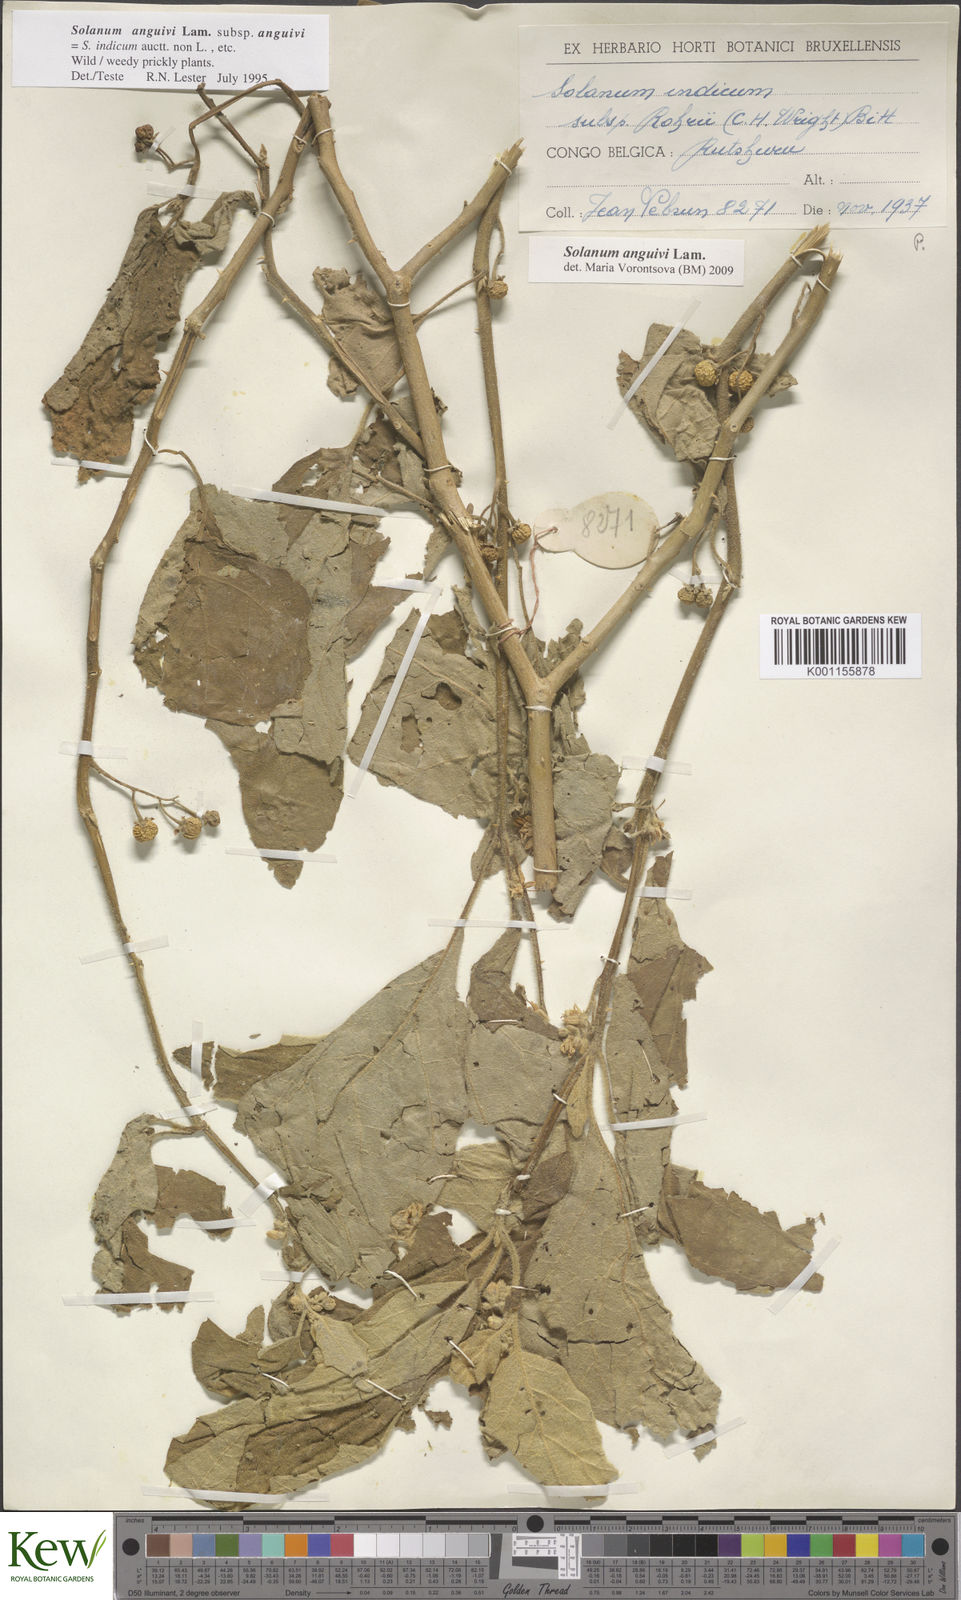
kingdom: Plantae
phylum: Tracheophyta
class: Magnoliopsida
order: Solanales
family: Solanaceae
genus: Solanum
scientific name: Solanum anguivi
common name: Forest bitterberry
